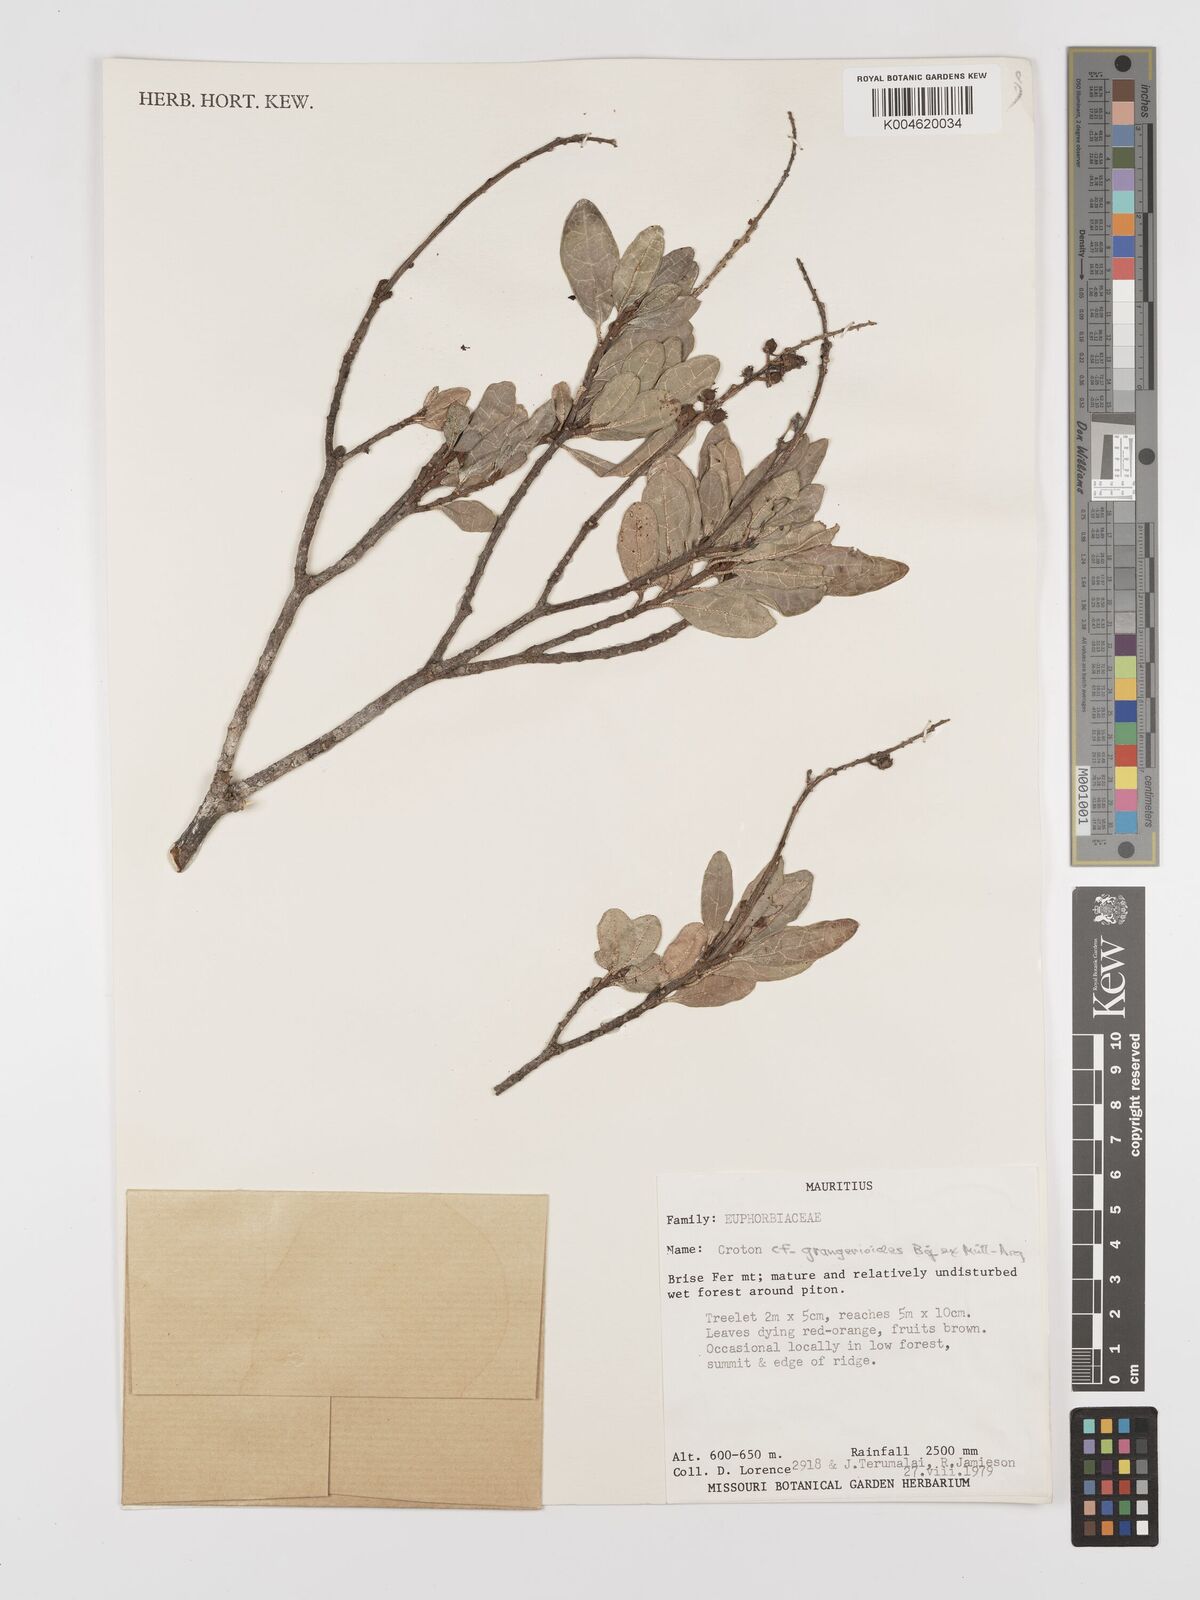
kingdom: Plantae
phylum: Tracheophyta
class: Magnoliopsida
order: Malpighiales
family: Euphorbiaceae
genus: Croton
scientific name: Croton grangerioides
